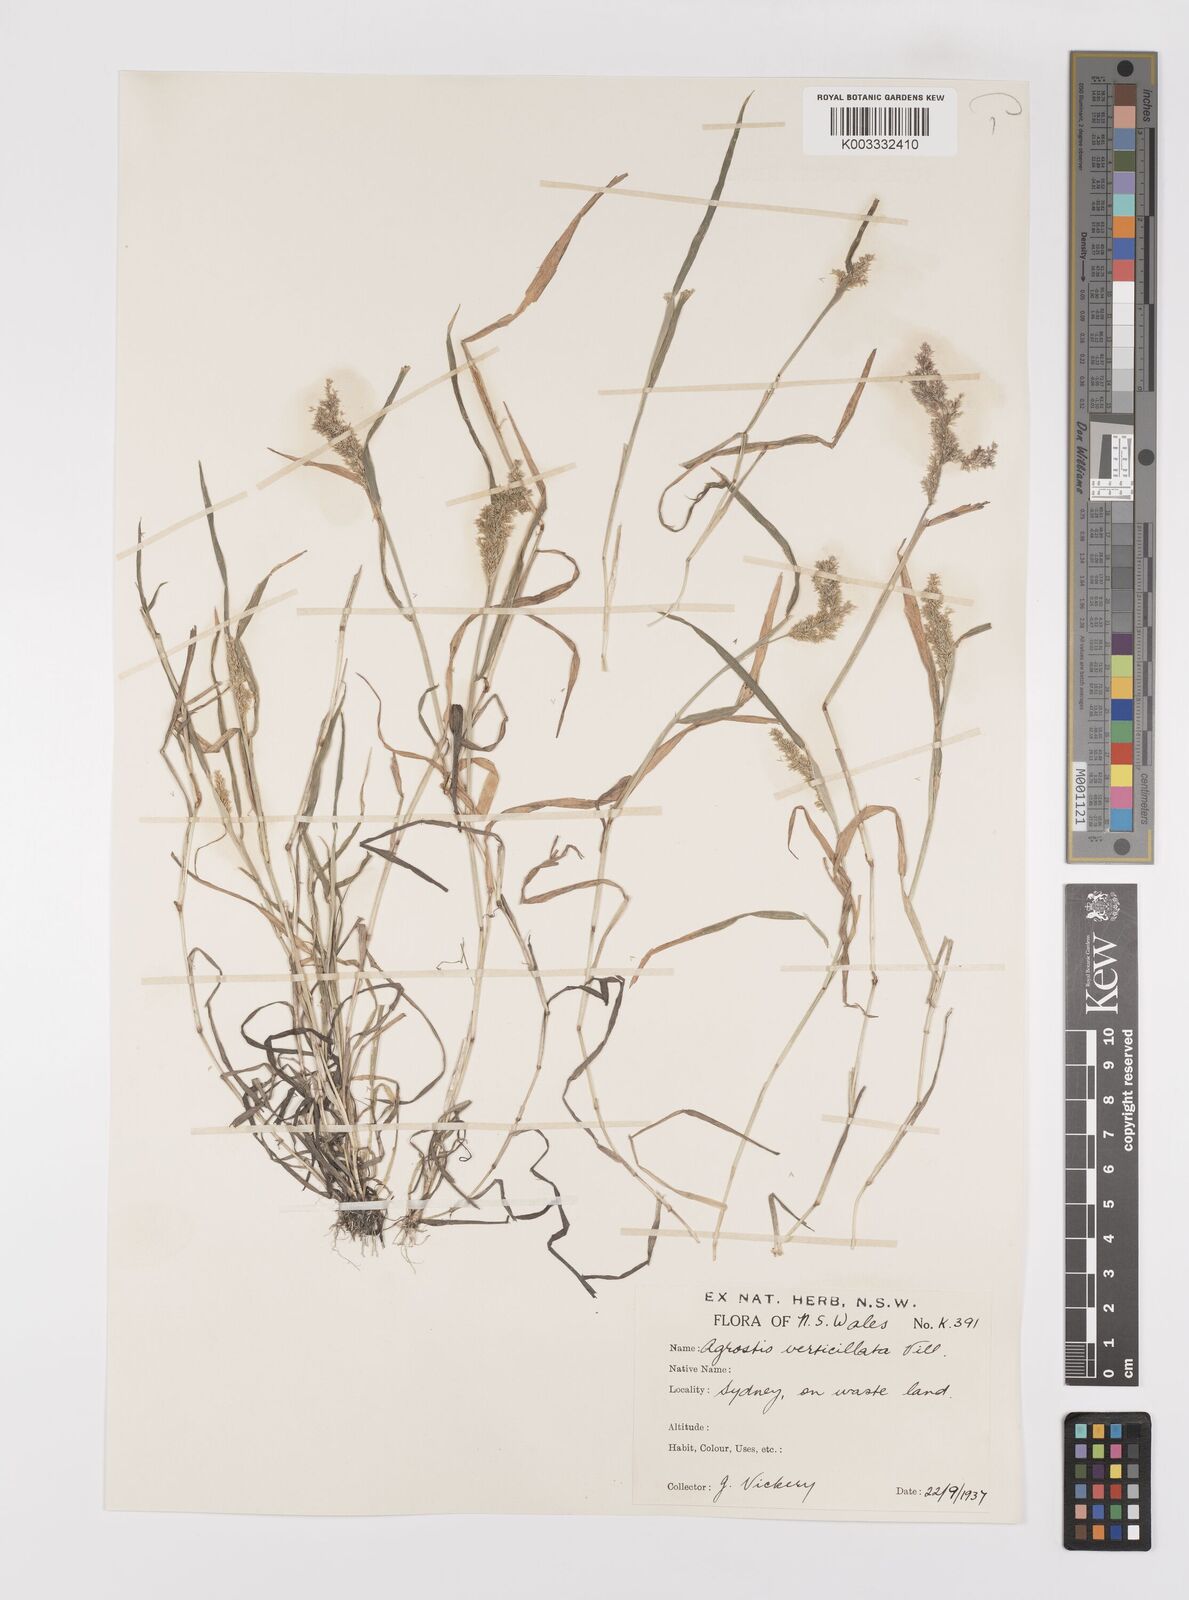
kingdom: Plantae
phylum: Tracheophyta
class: Liliopsida
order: Poales
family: Poaceae
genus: Polypogon
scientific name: Polypogon viridis
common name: Water bent
